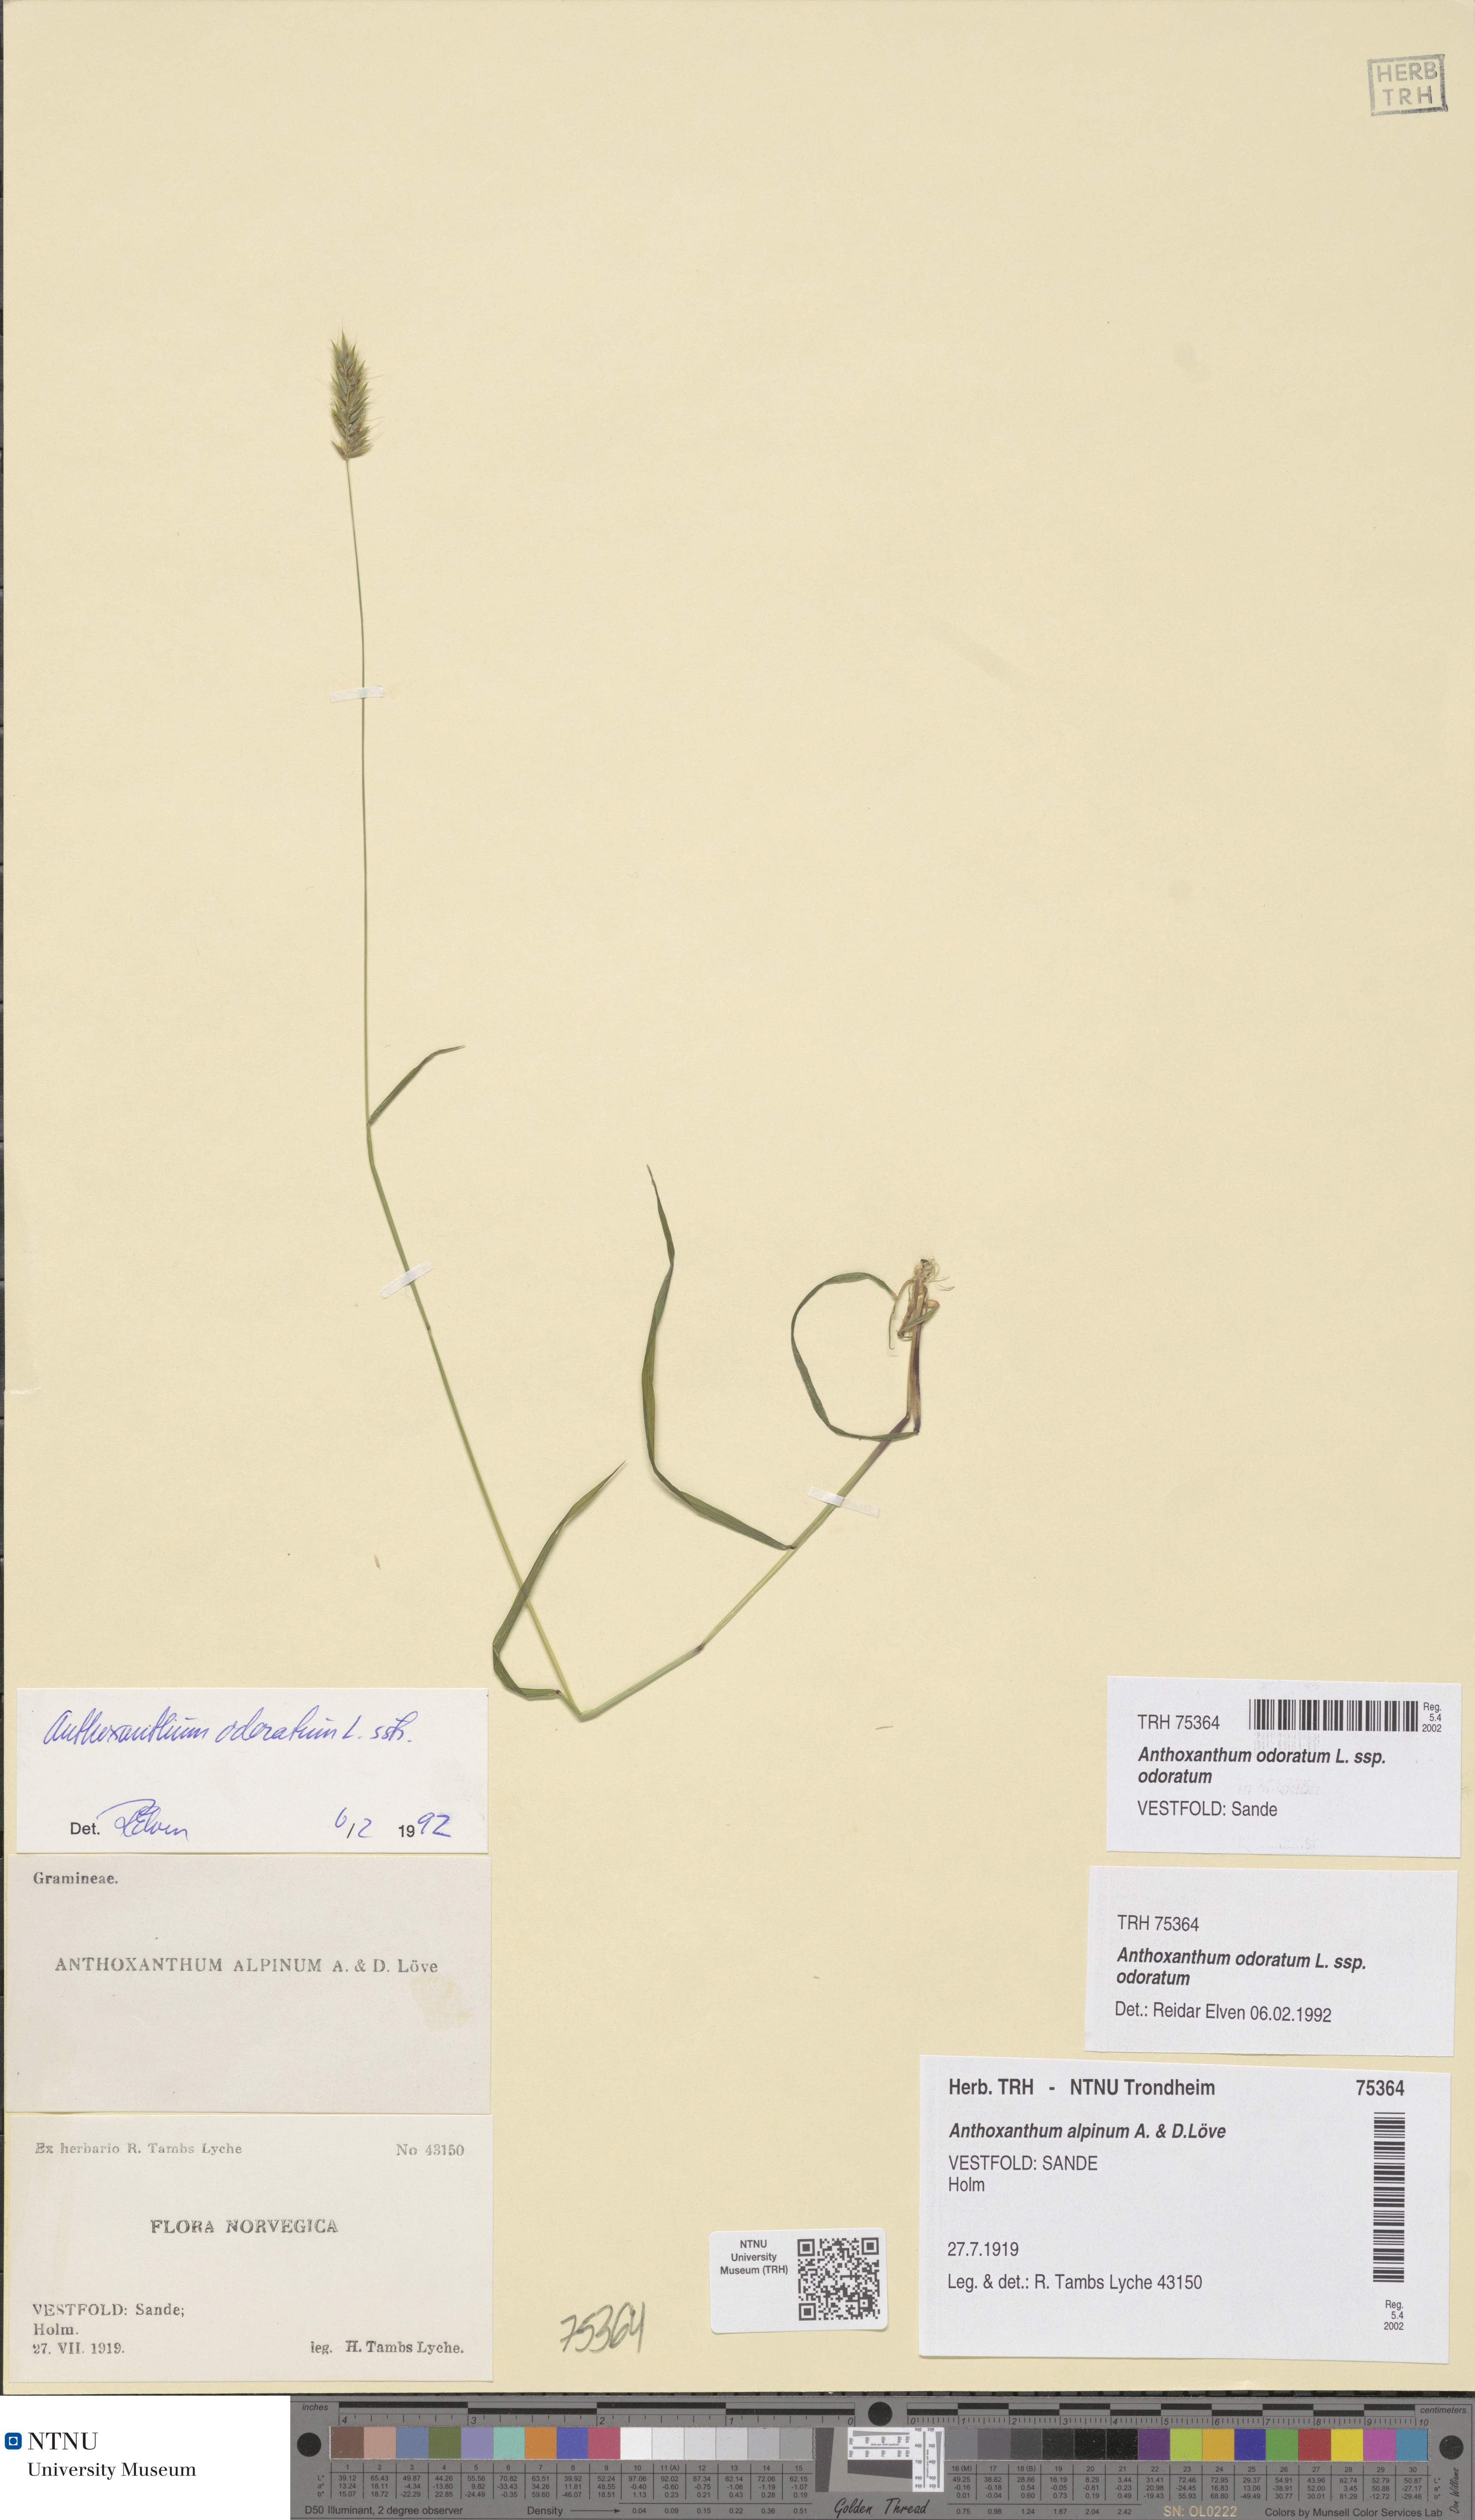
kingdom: Plantae
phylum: Tracheophyta
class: Liliopsida
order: Poales
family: Poaceae
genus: Anthoxanthum
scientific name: Anthoxanthum odoratum
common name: Sweet vernalgrass
